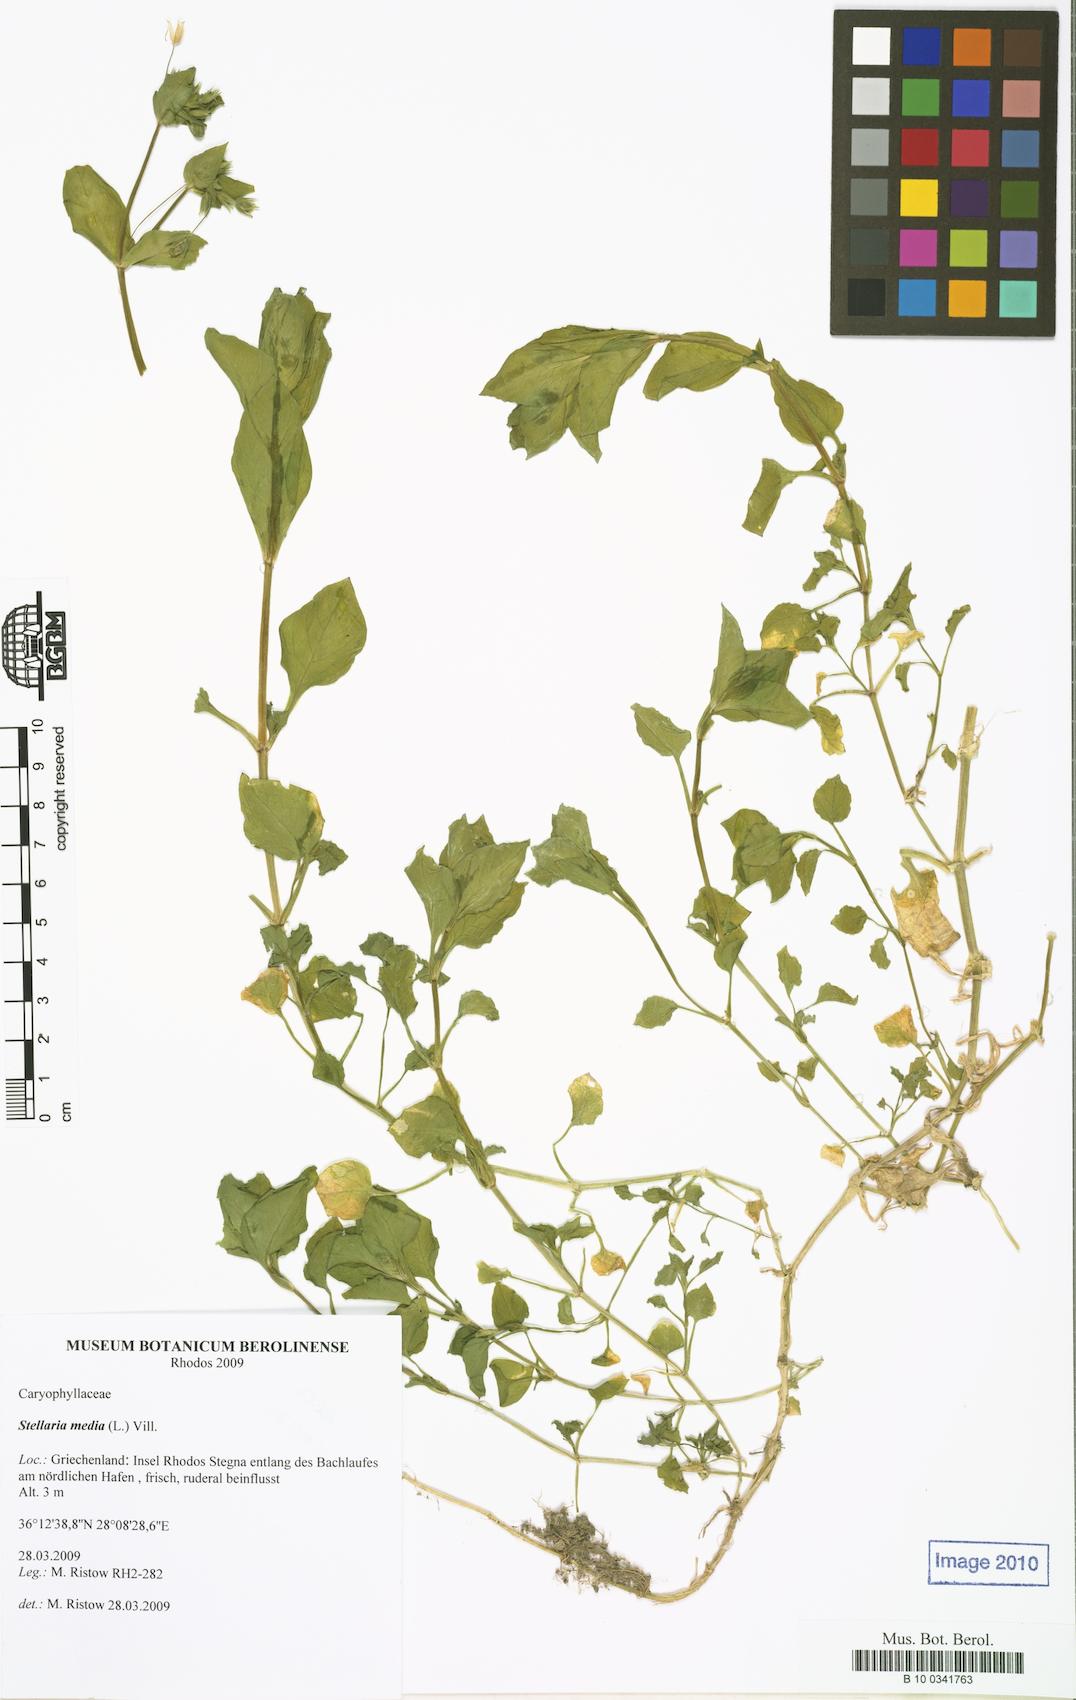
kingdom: Plantae
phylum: Tracheophyta
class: Magnoliopsida
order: Caryophyllales
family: Caryophyllaceae
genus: Stellaria
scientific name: Stellaria media
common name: Common chickweed
